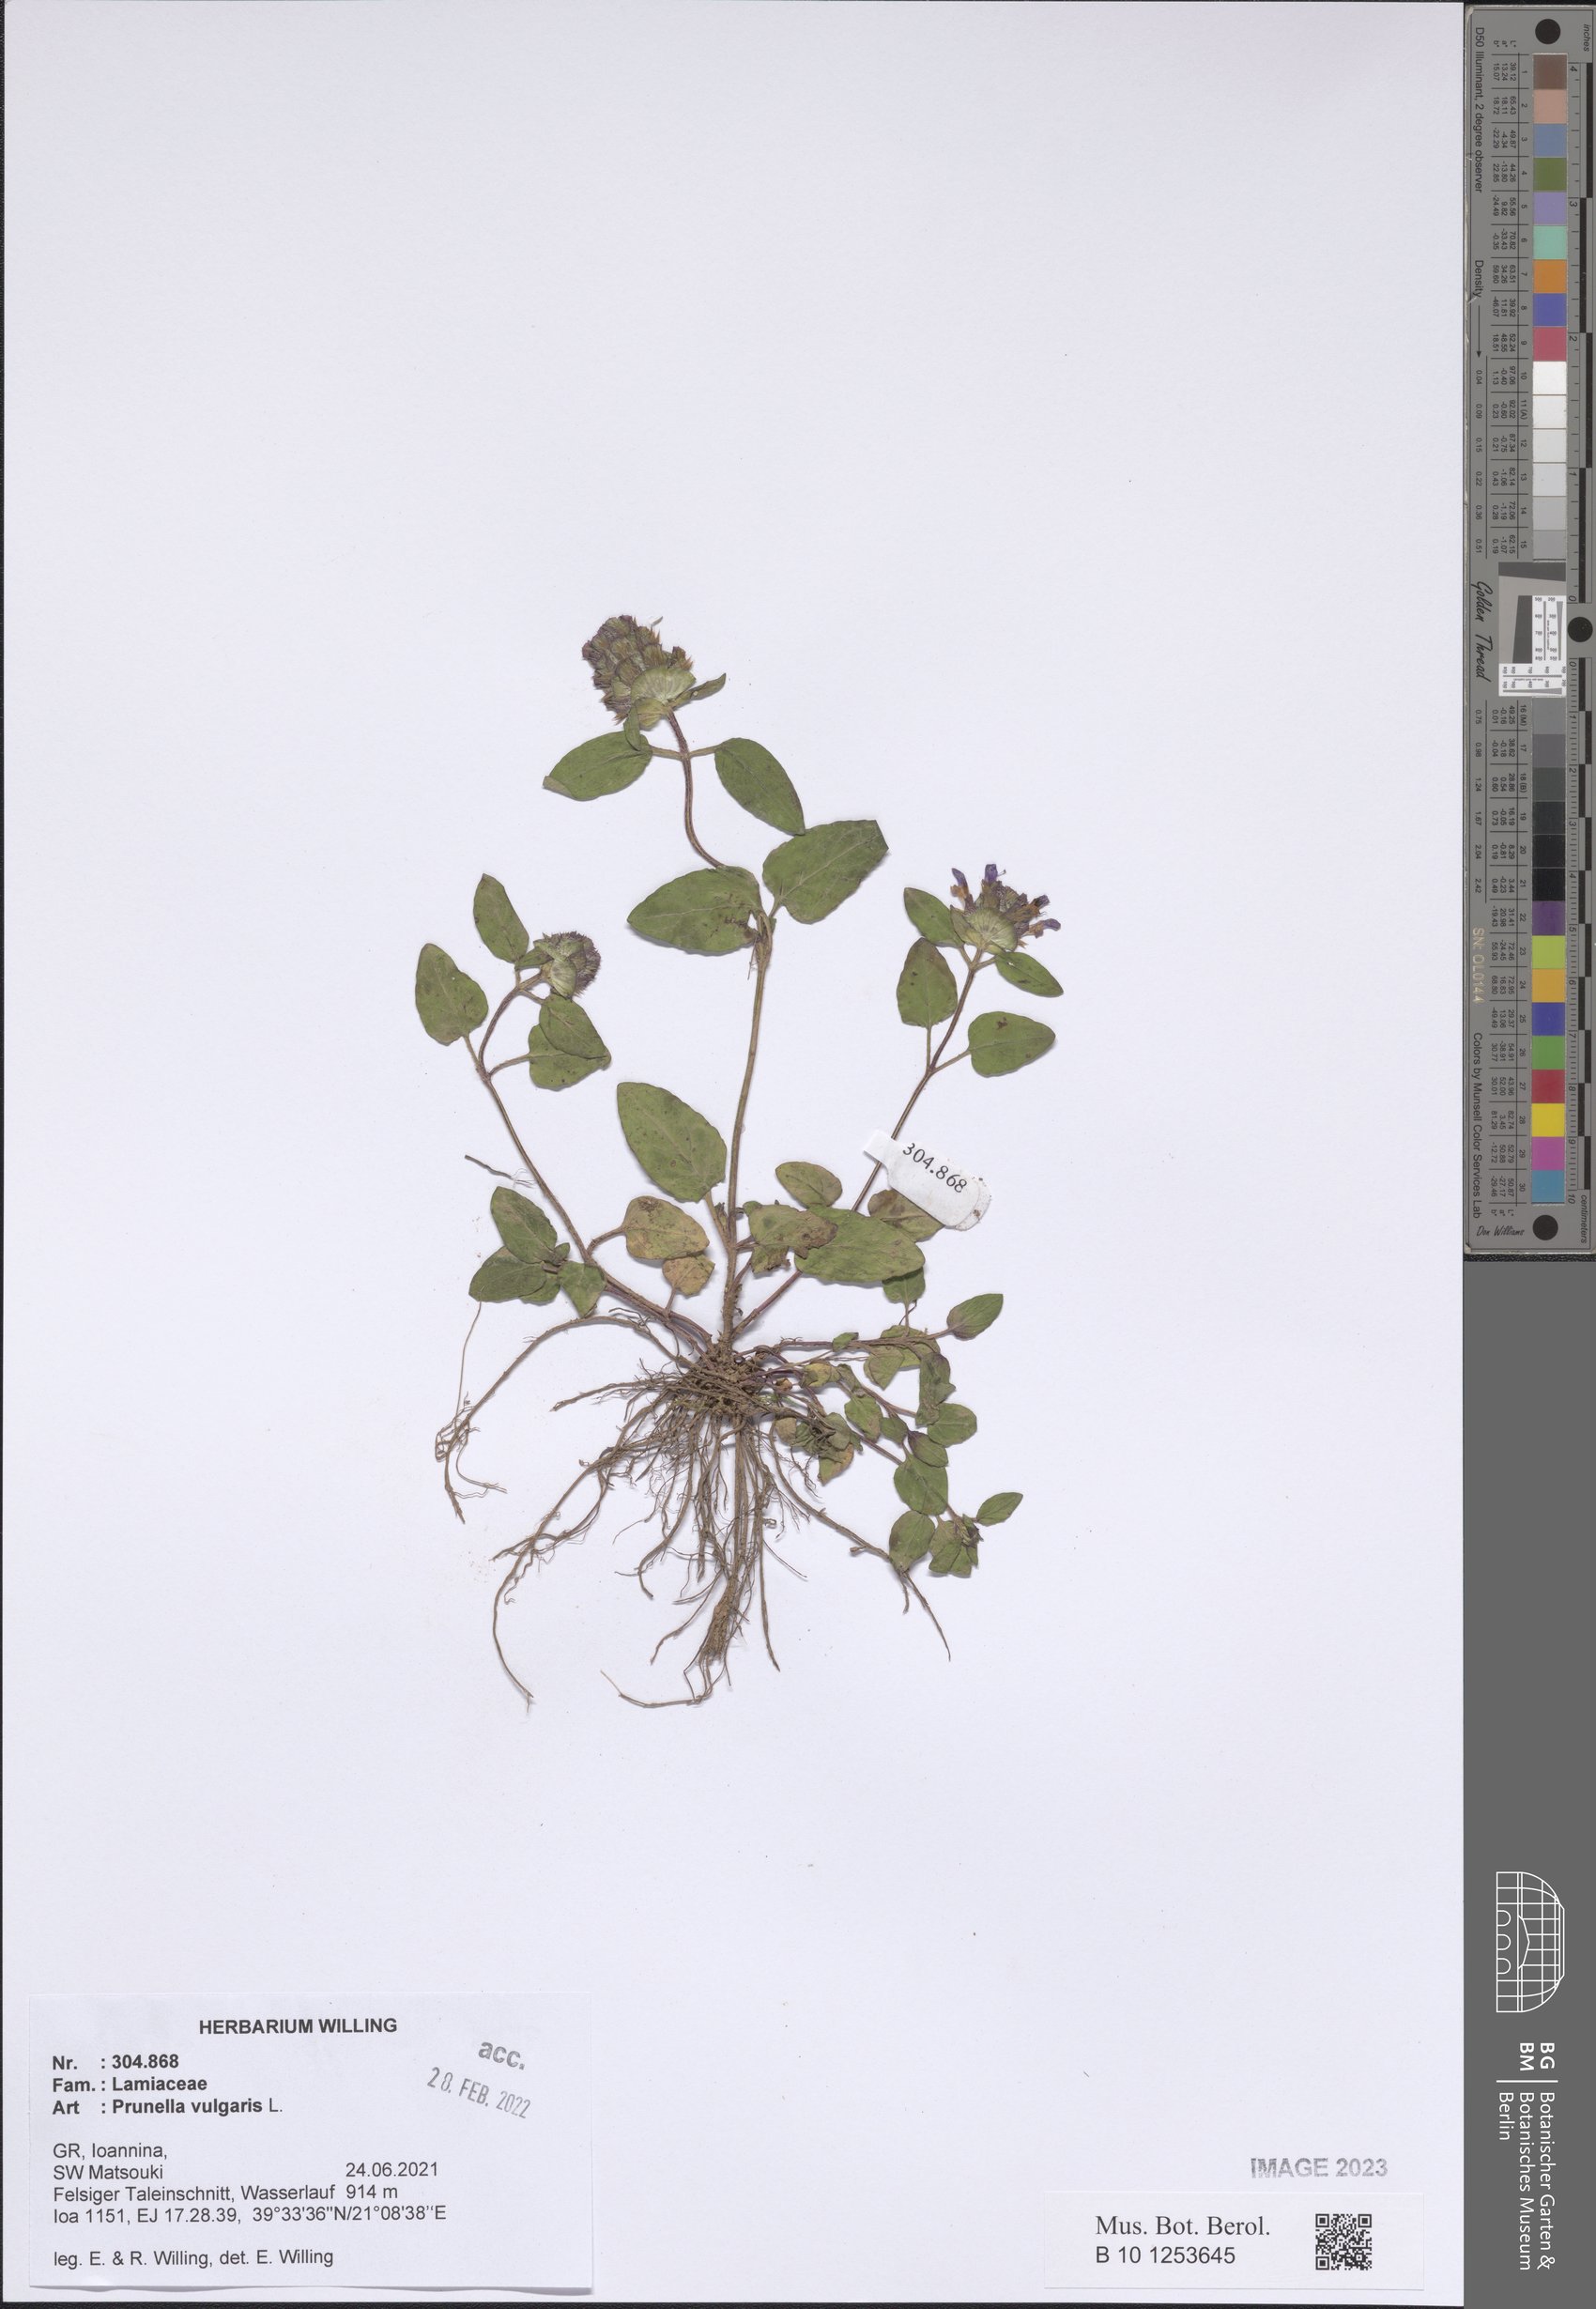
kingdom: Plantae
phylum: Tracheophyta
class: Magnoliopsida
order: Lamiales
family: Lamiaceae
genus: Prunella
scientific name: Prunella vulgaris
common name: Heal-all
